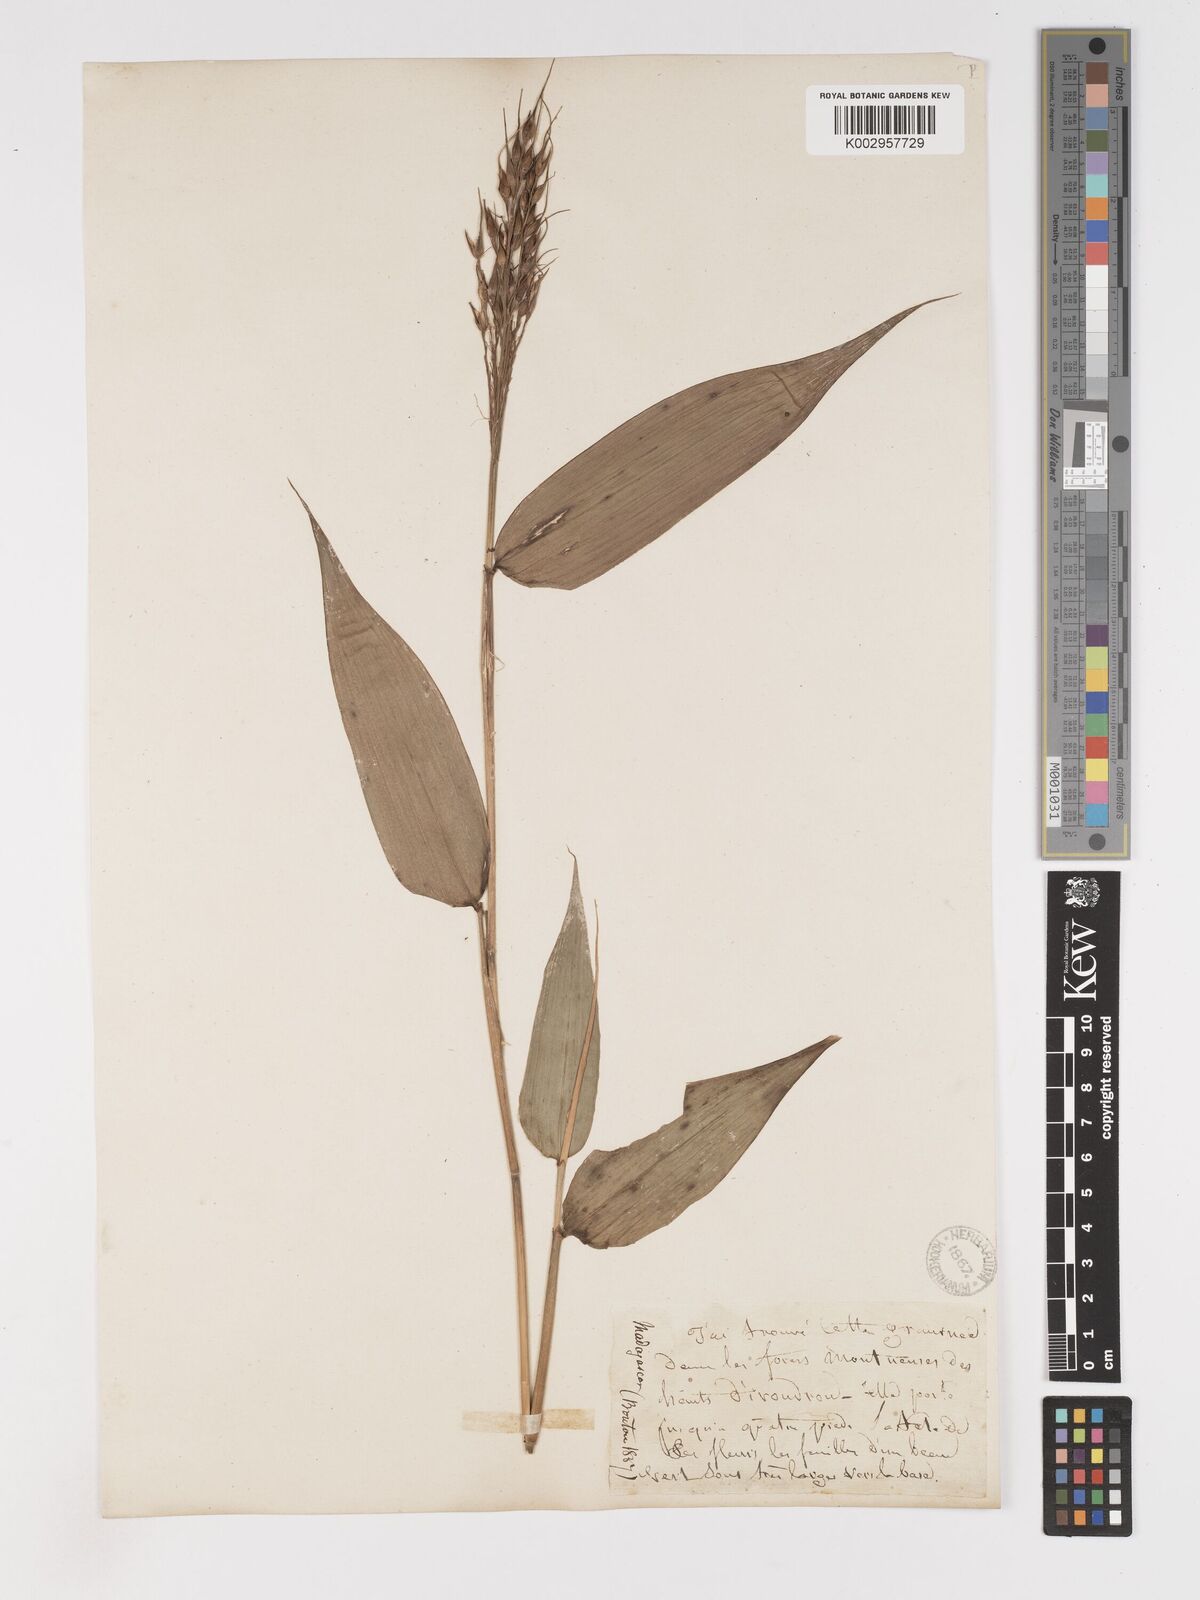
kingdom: Plantae
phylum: Tracheophyta
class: Liliopsida
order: Poales
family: Poaceae
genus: Olyra
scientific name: Olyra latifolia
